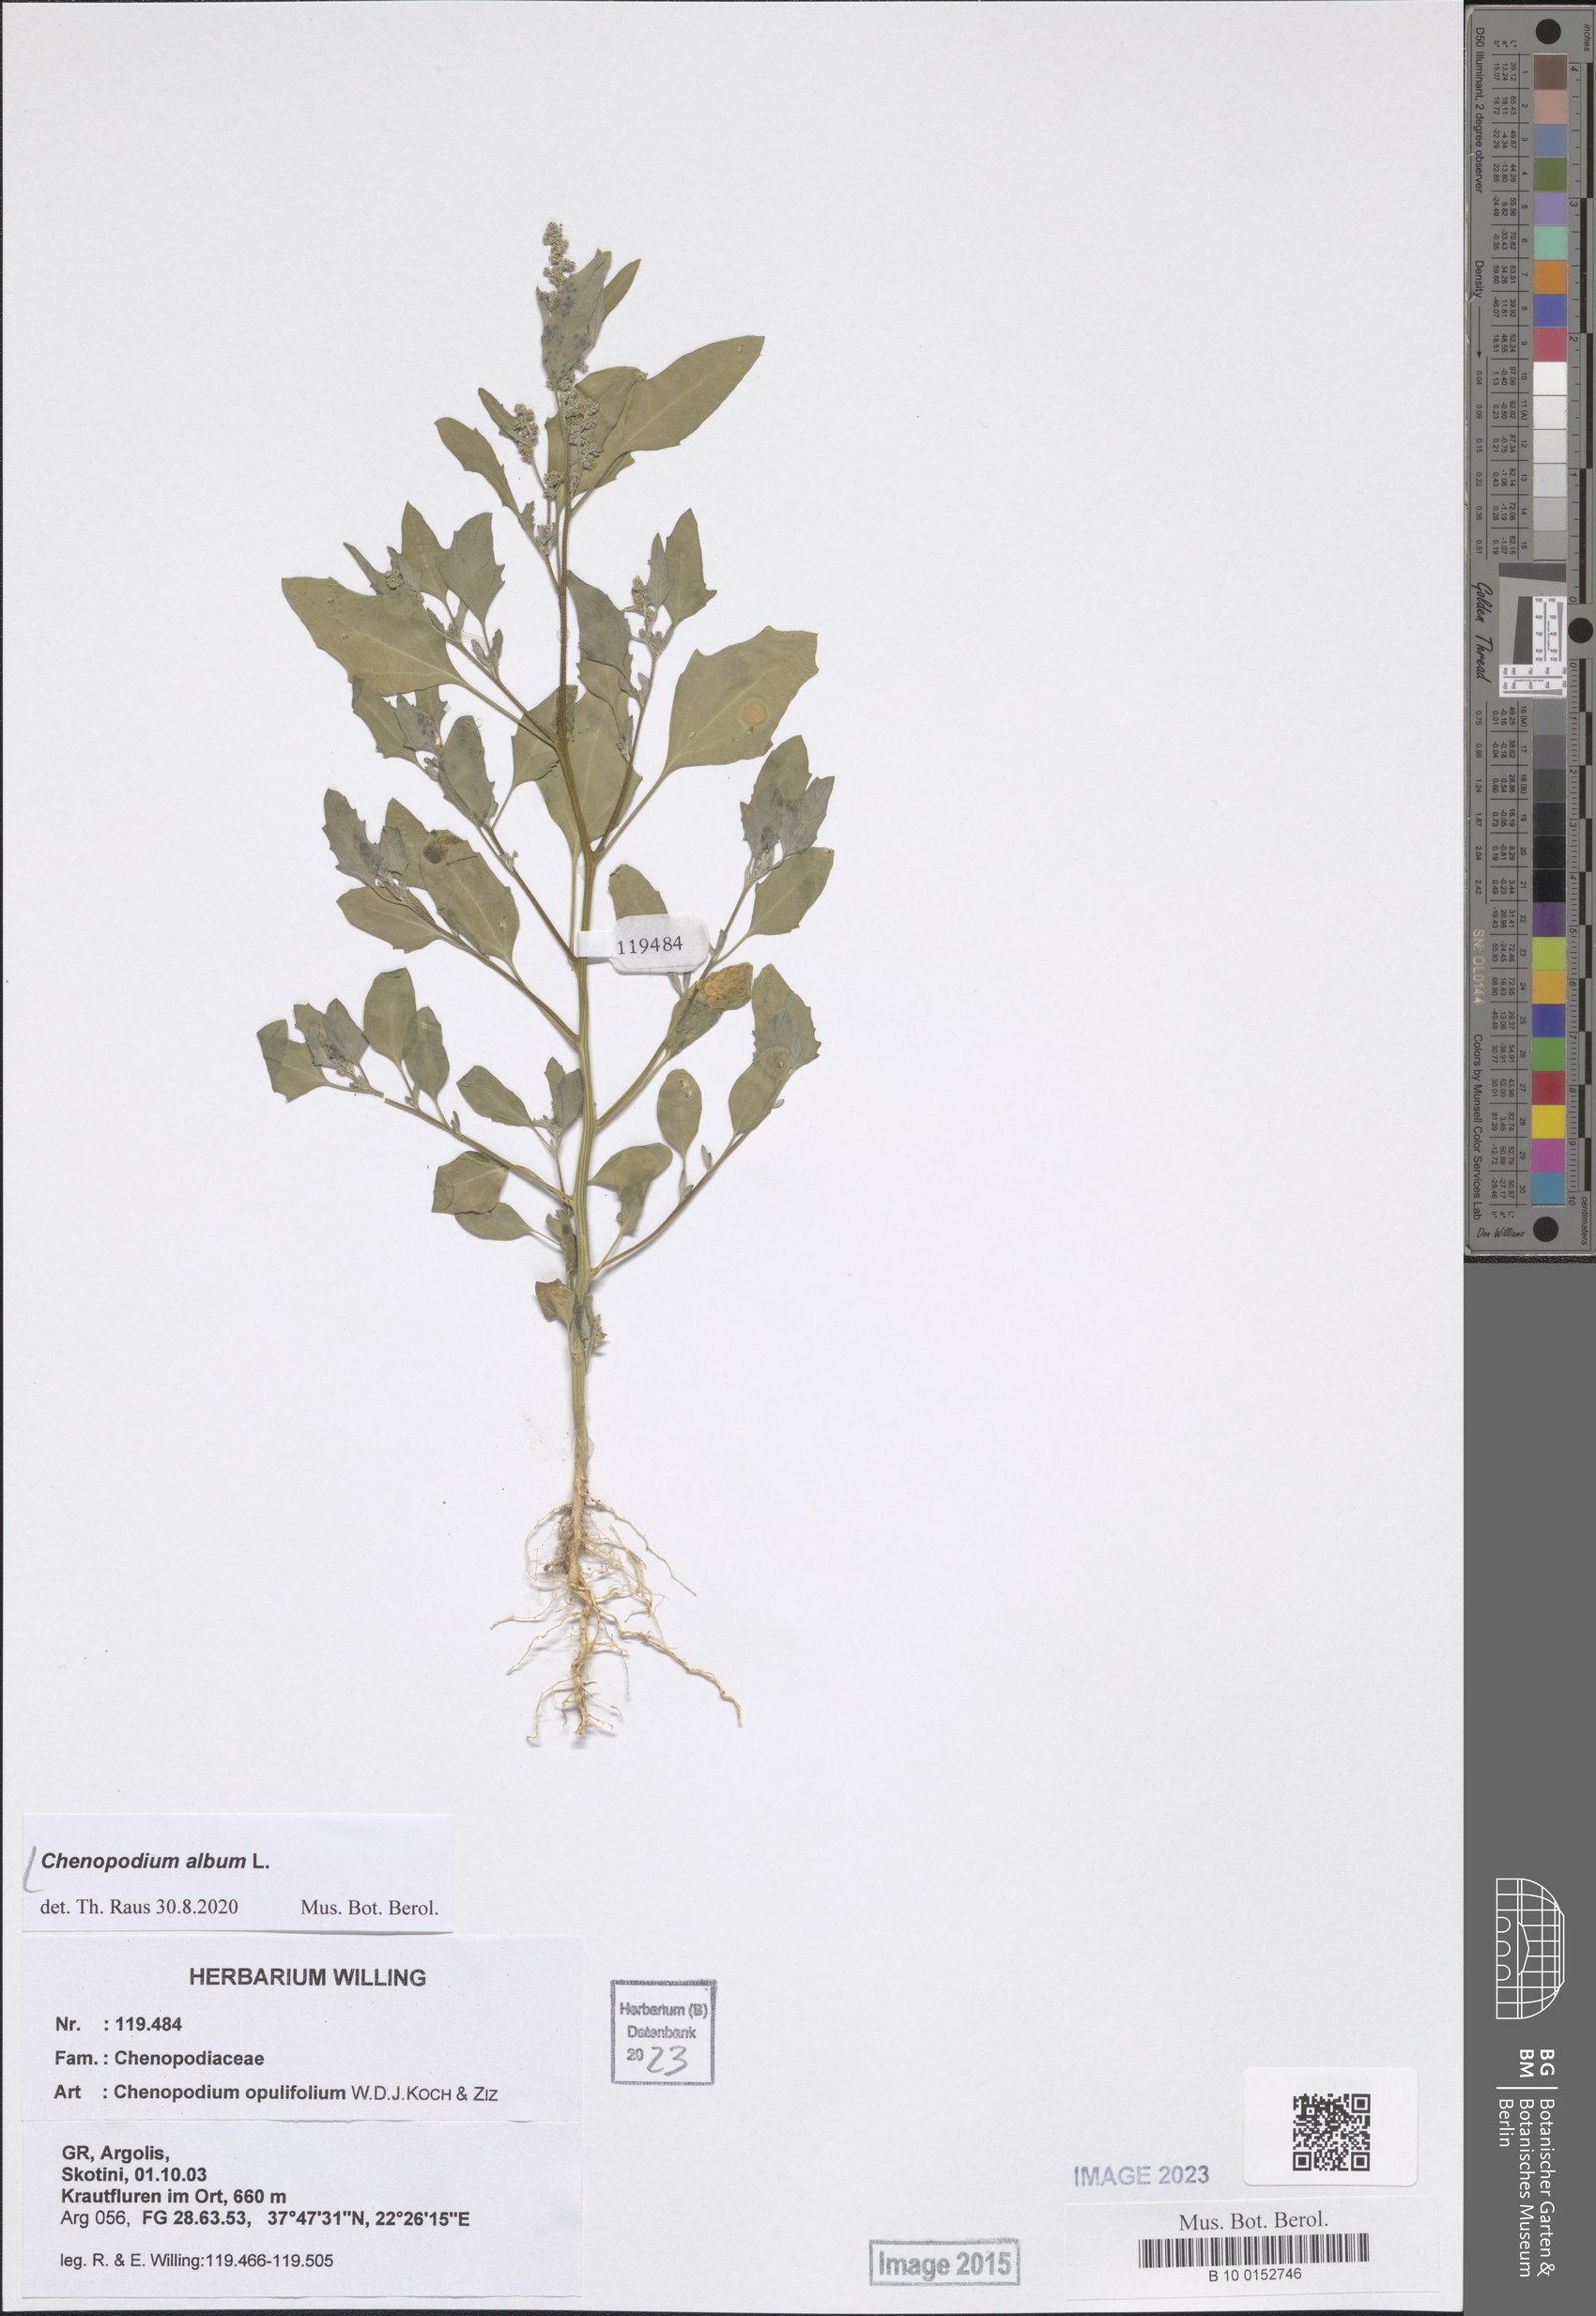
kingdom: Plantae
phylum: Tracheophyta
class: Magnoliopsida
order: Caryophyllales
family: Amaranthaceae
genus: Chenopodium
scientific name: Chenopodium album
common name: Fat-hen
